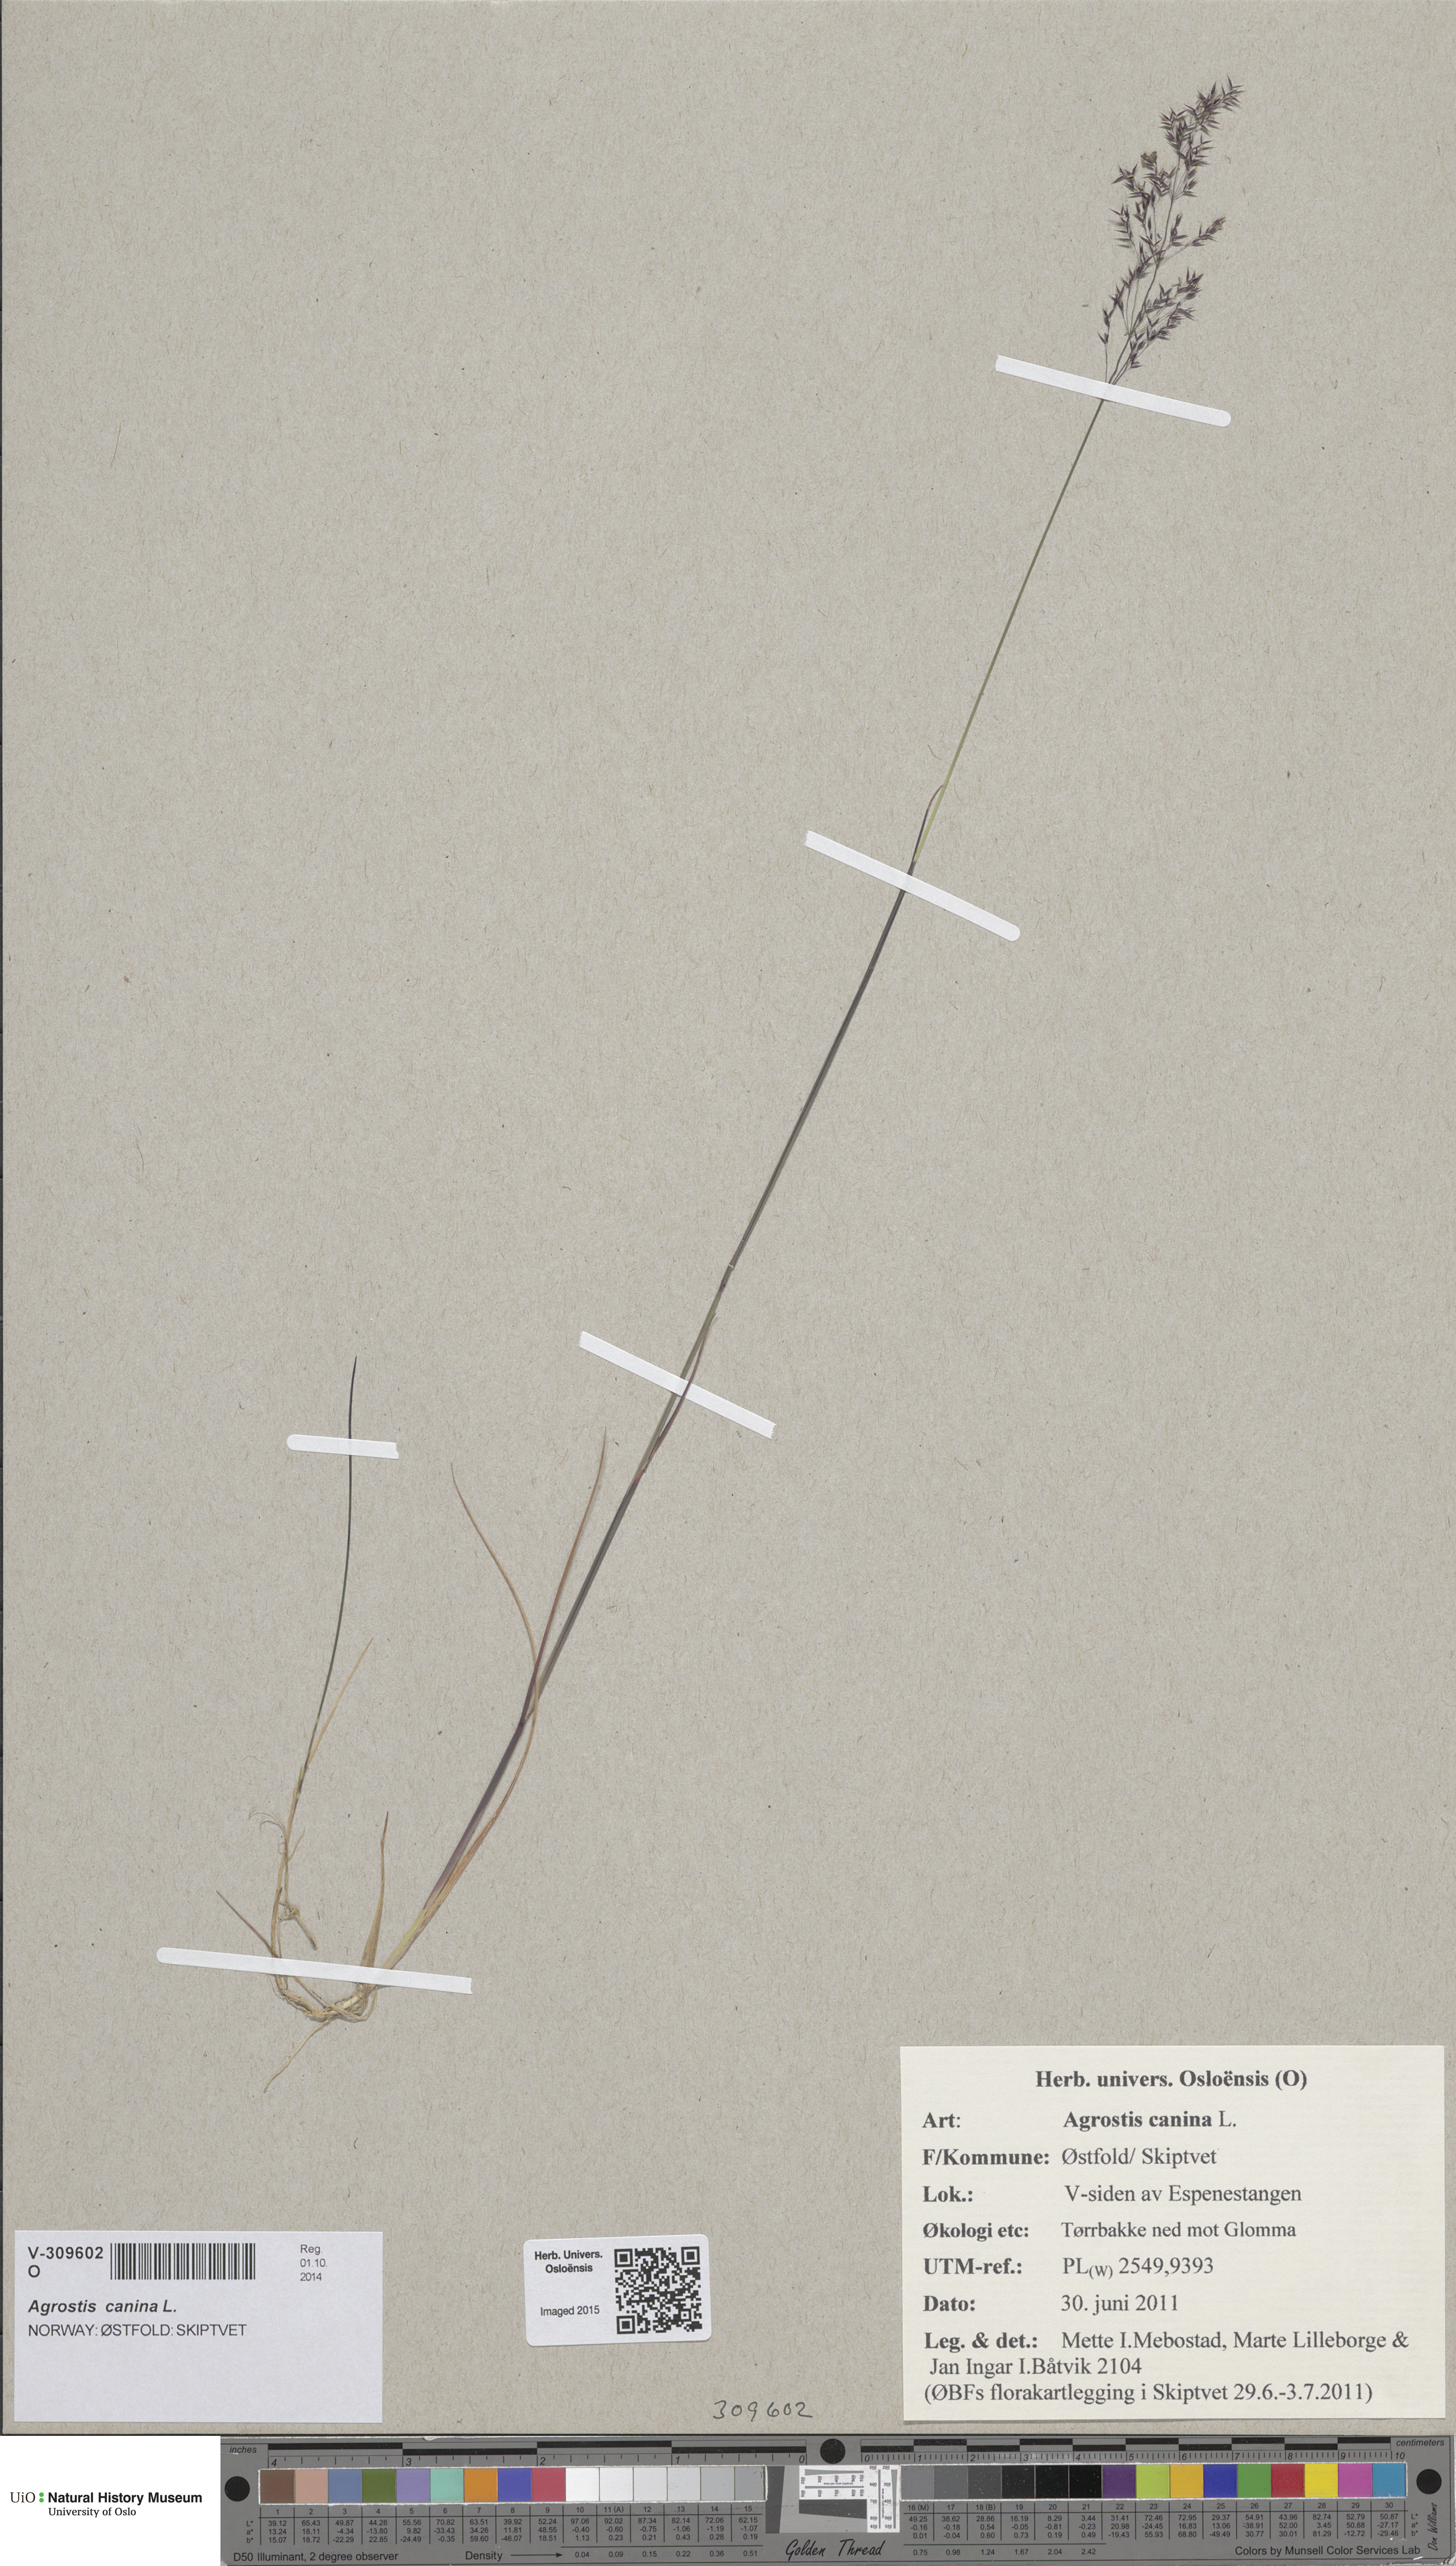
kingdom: Plantae
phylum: Tracheophyta
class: Liliopsida
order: Poales
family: Poaceae
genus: Agrostis
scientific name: Agrostis canina
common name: Velvet bent
